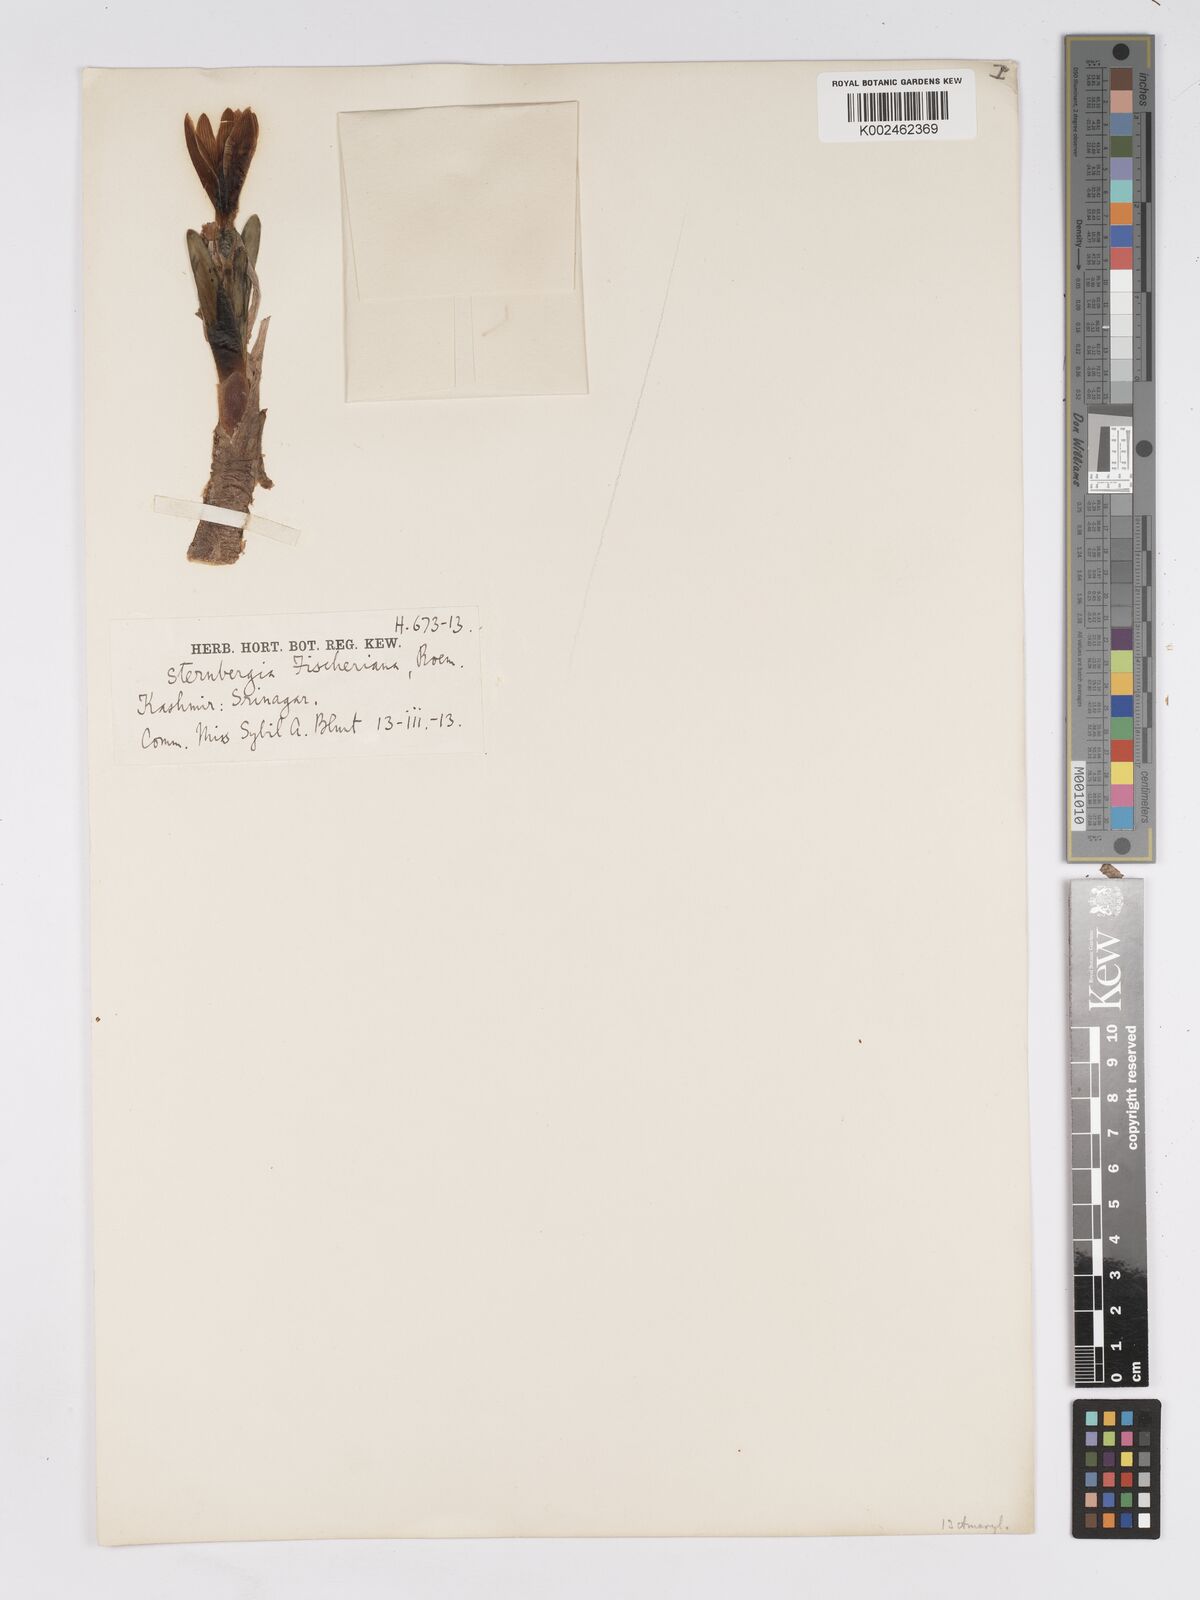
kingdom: Plantae
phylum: Tracheophyta
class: Liliopsida
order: Asparagales
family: Amaryllidaceae
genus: Sternbergia
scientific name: Sternbergia vernalis
